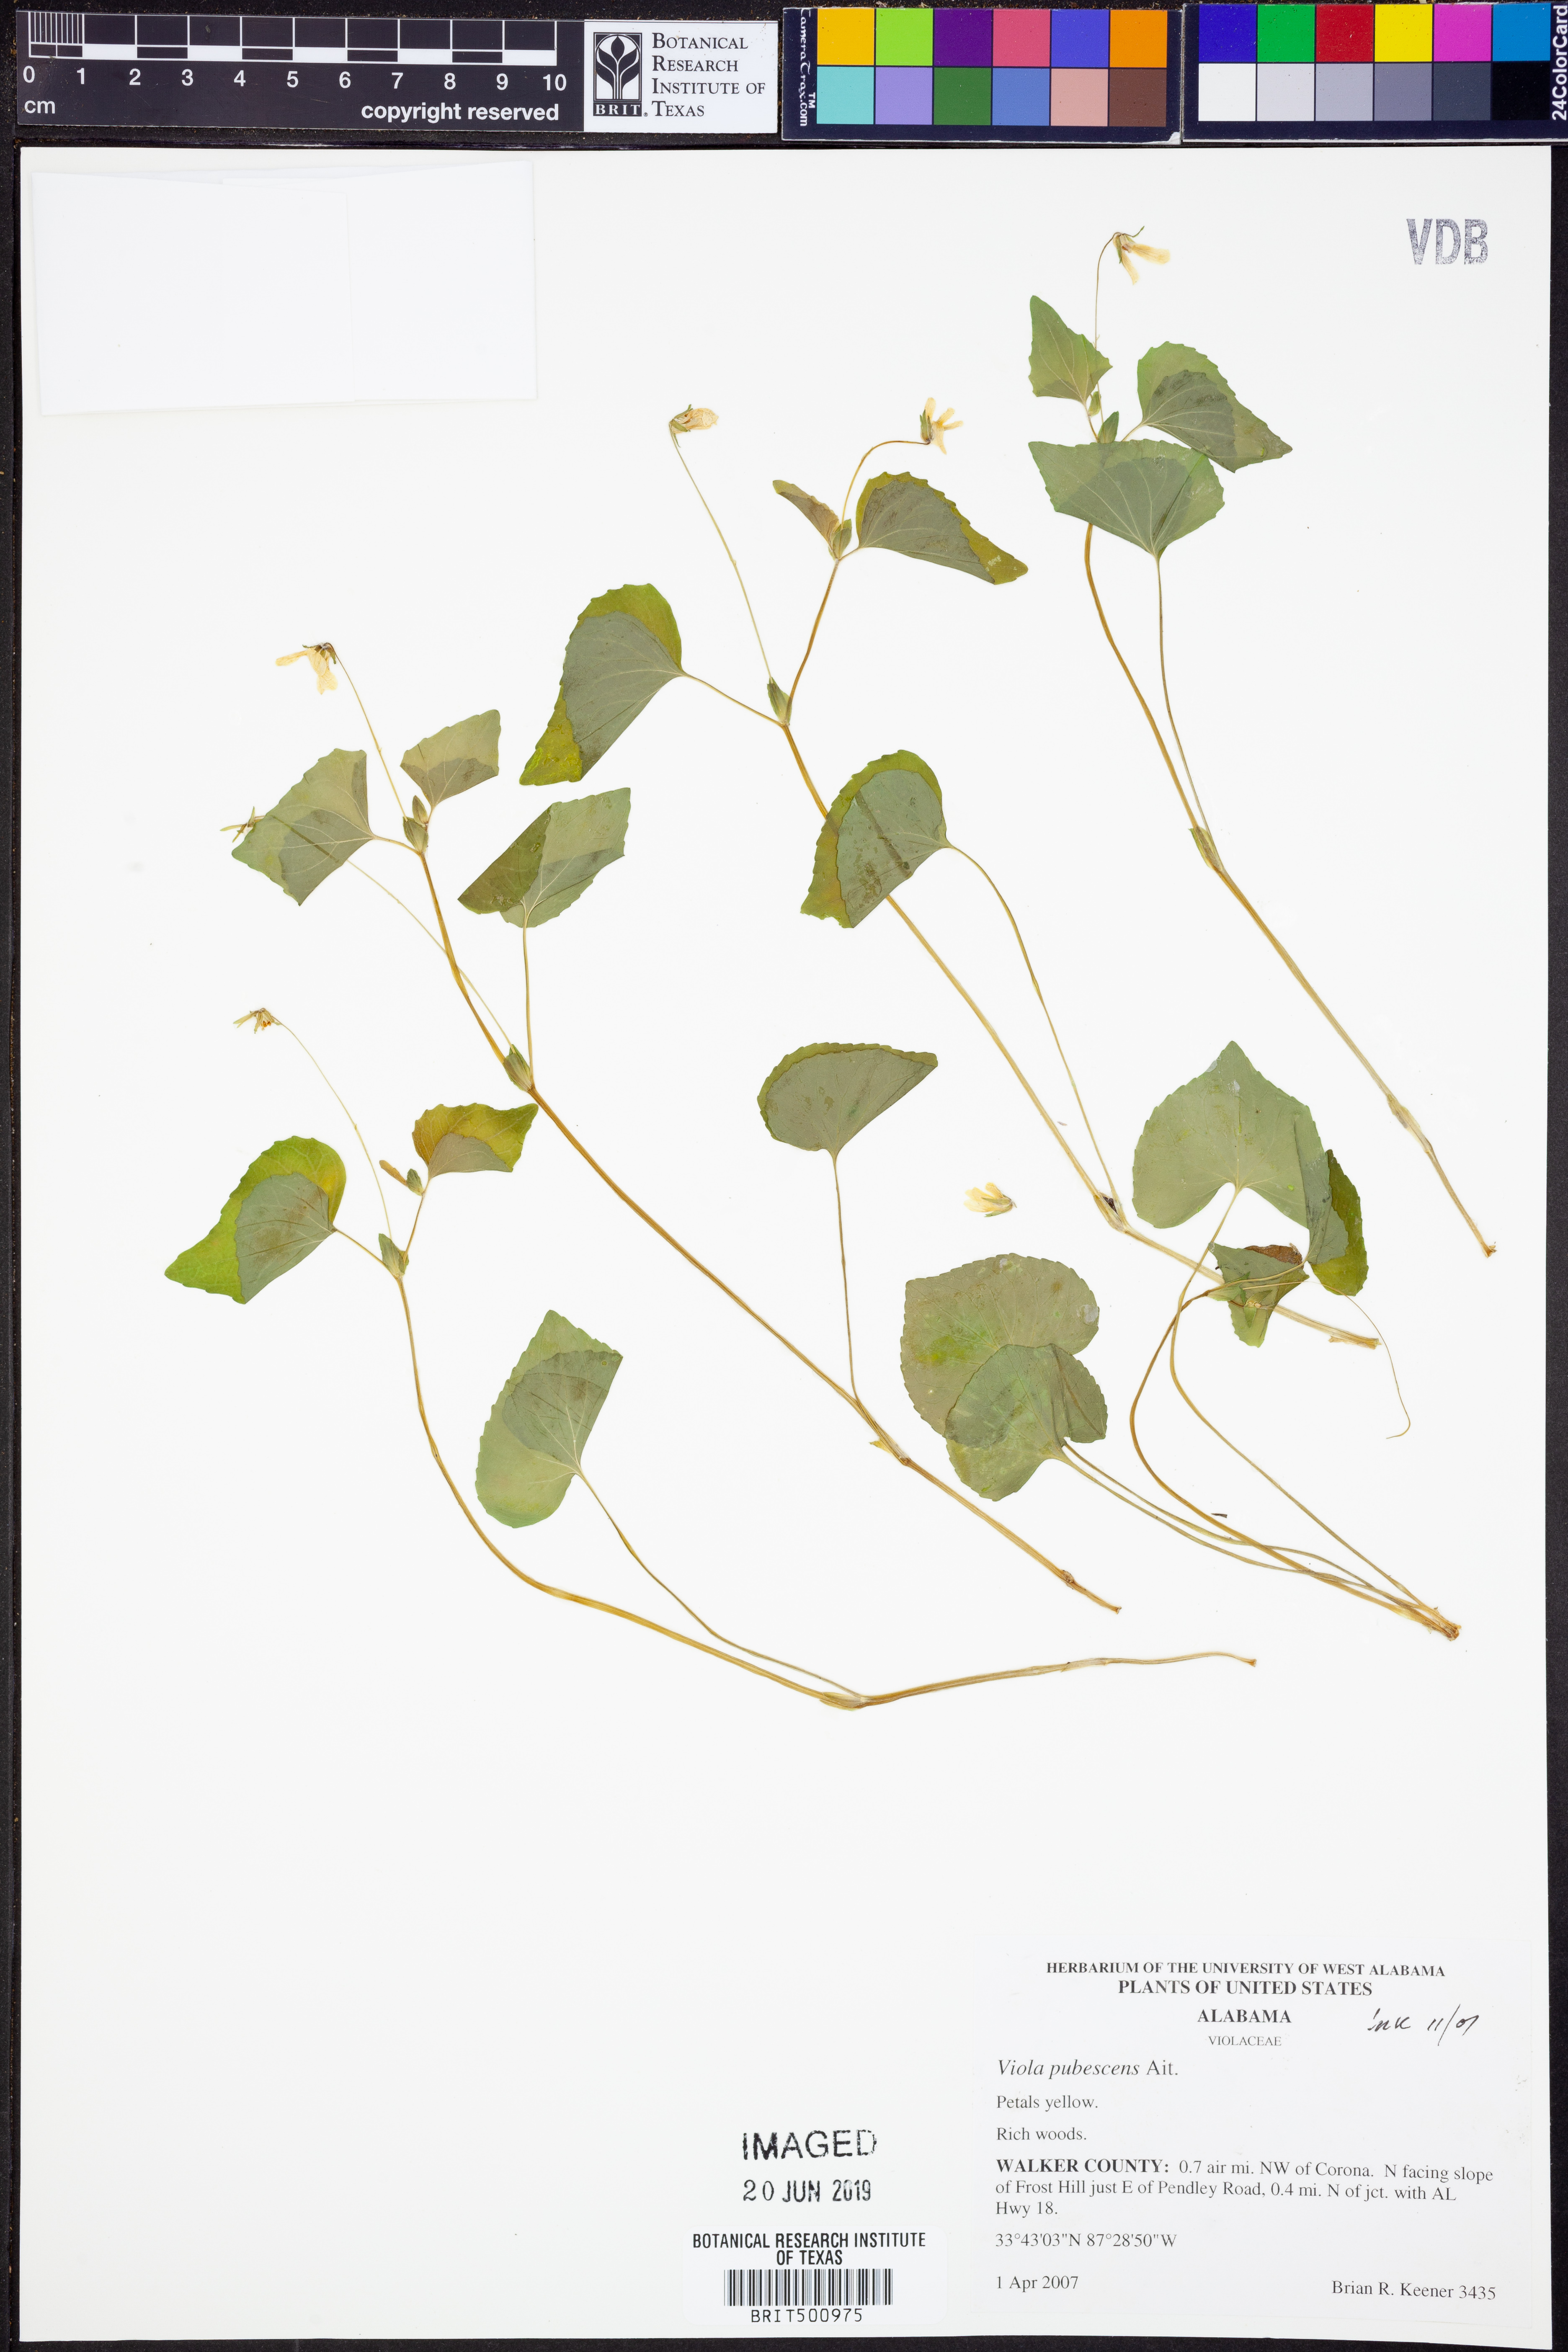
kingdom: Plantae
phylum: Tracheophyta
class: Magnoliopsida
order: Malpighiales
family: Violaceae
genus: Viola
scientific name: Viola pubescens
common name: Yellow forest violet
